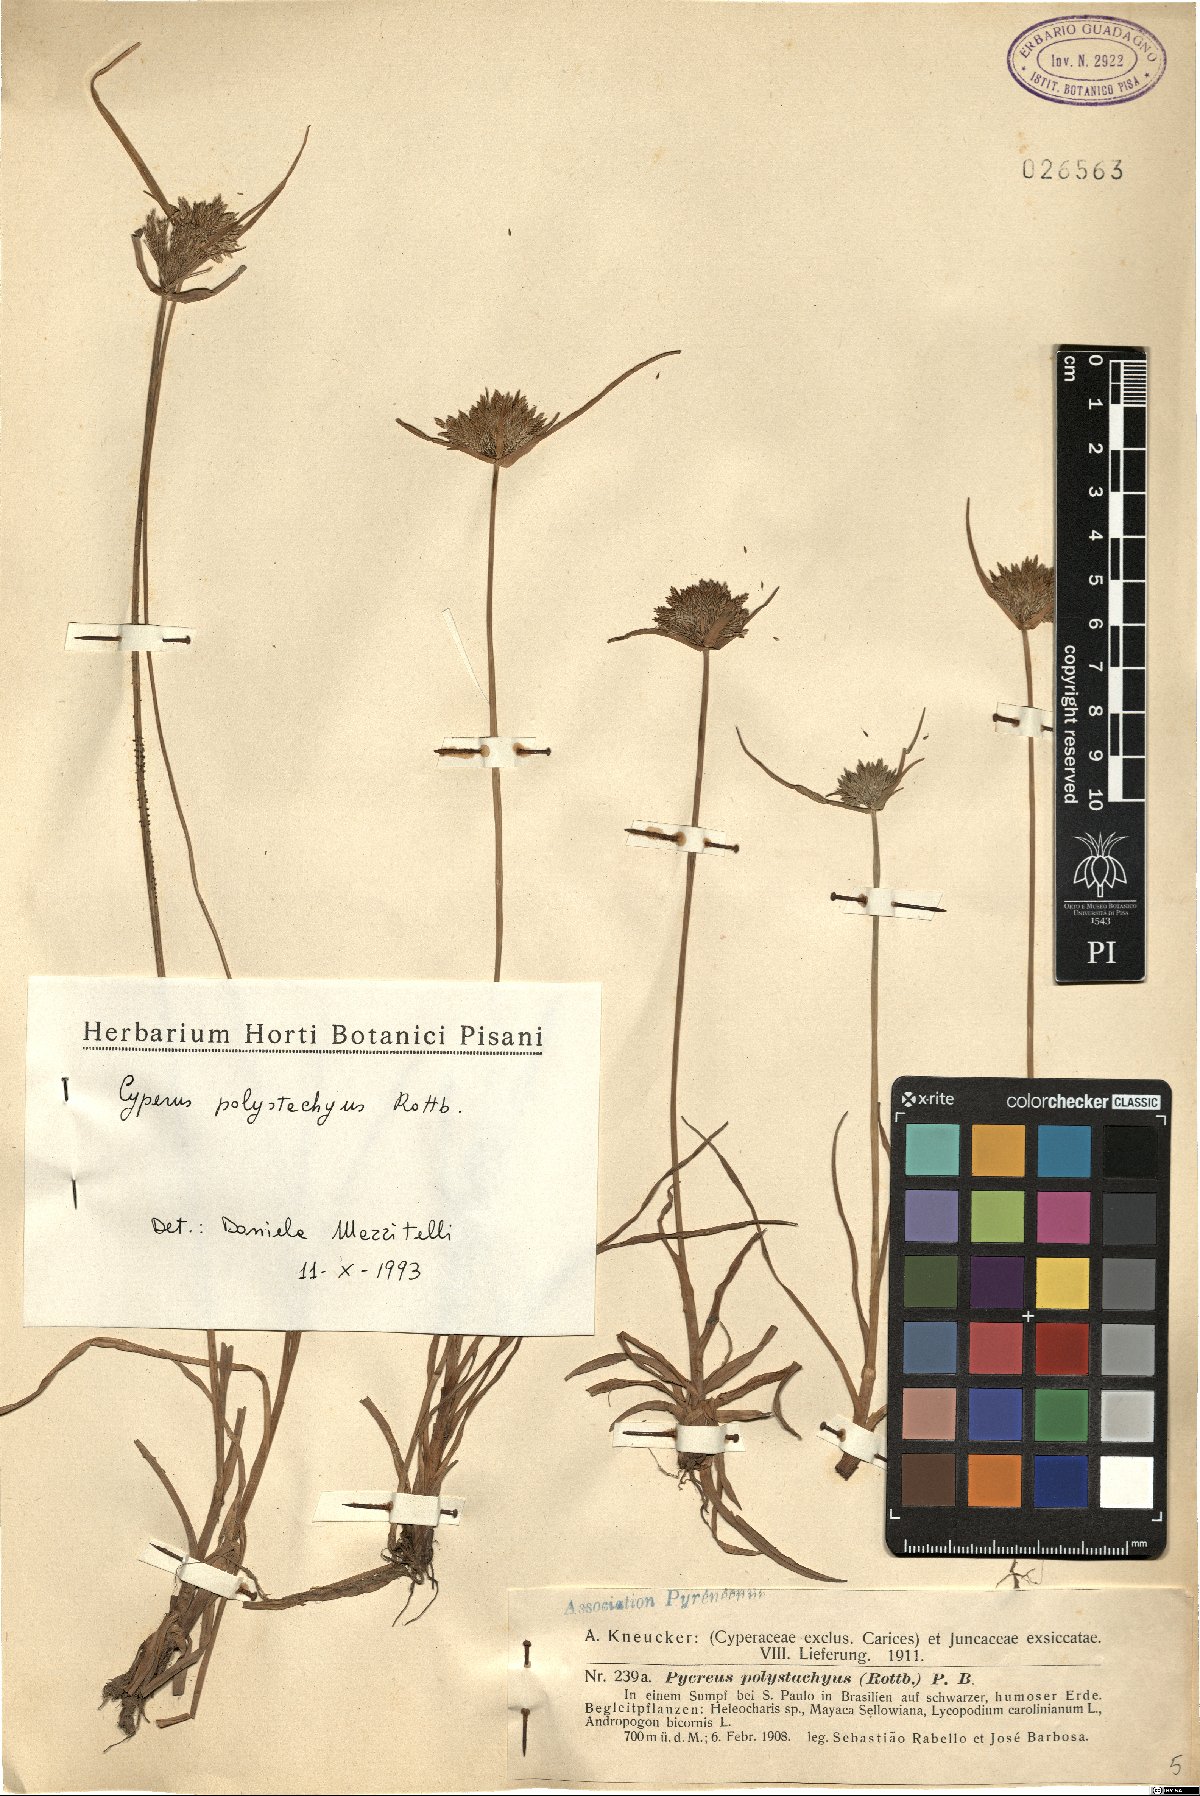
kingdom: Plantae
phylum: Tracheophyta
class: Liliopsida
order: Poales
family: Cyperaceae
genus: Cyperus
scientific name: Cyperus polystachyos
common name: Bunchy flat sedge
